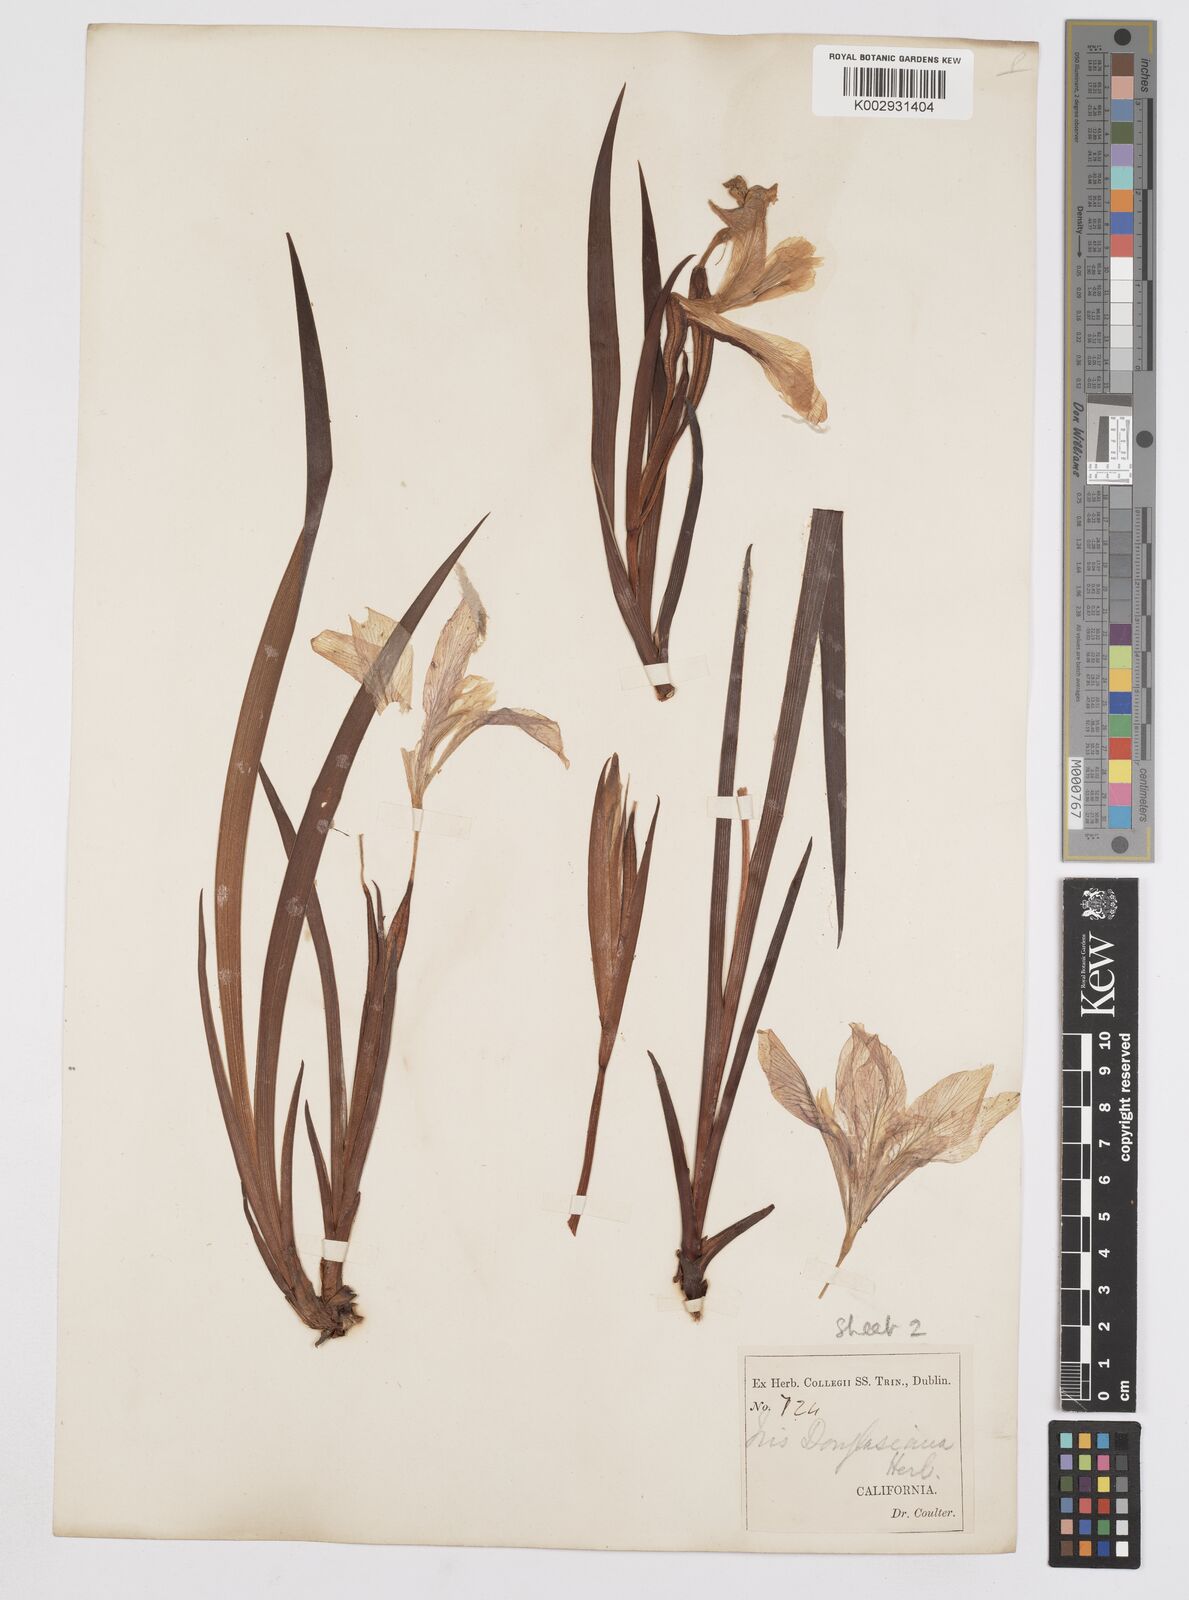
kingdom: Plantae
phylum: Tracheophyta
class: Liliopsida
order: Asparagales
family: Iridaceae
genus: Iris
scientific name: Iris douglasiana
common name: Marin iris
